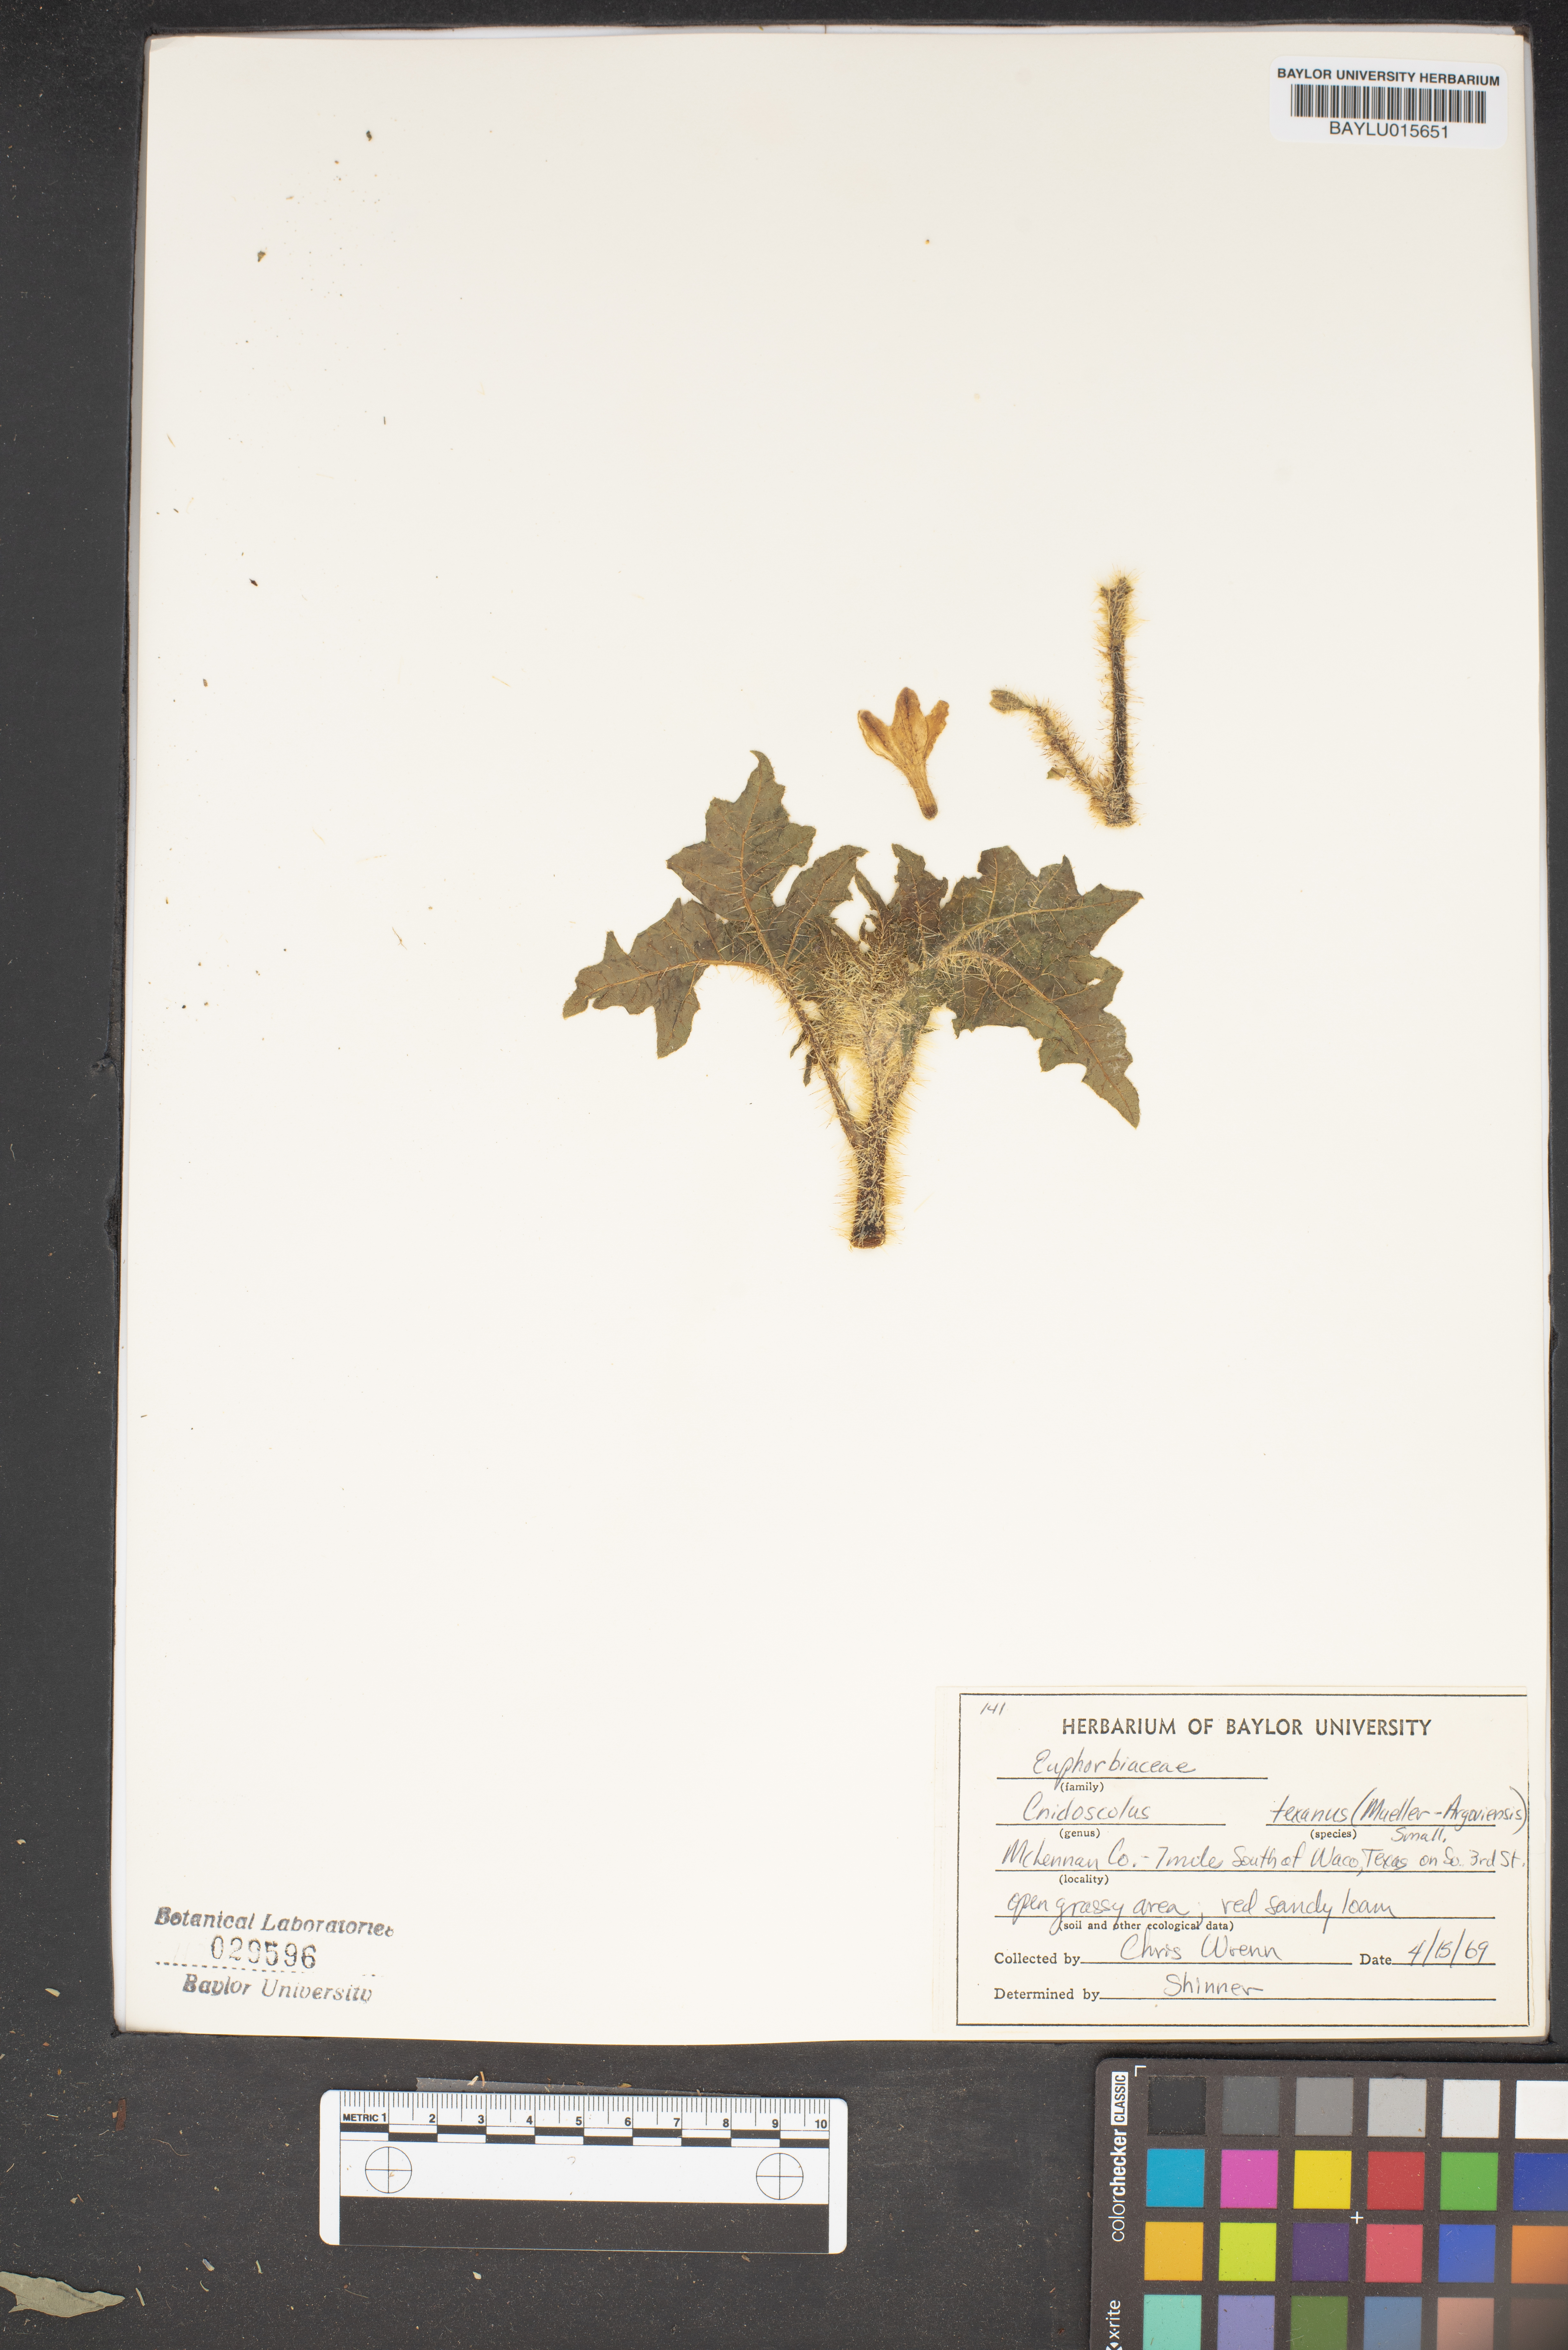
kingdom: Plantae
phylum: Tracheophyta
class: Magnoliopsida
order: Malpighiales
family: Euphorbiaceae
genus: Cnidoscolus
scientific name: Cnidoscolus texanus
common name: Texas bull-nettle
